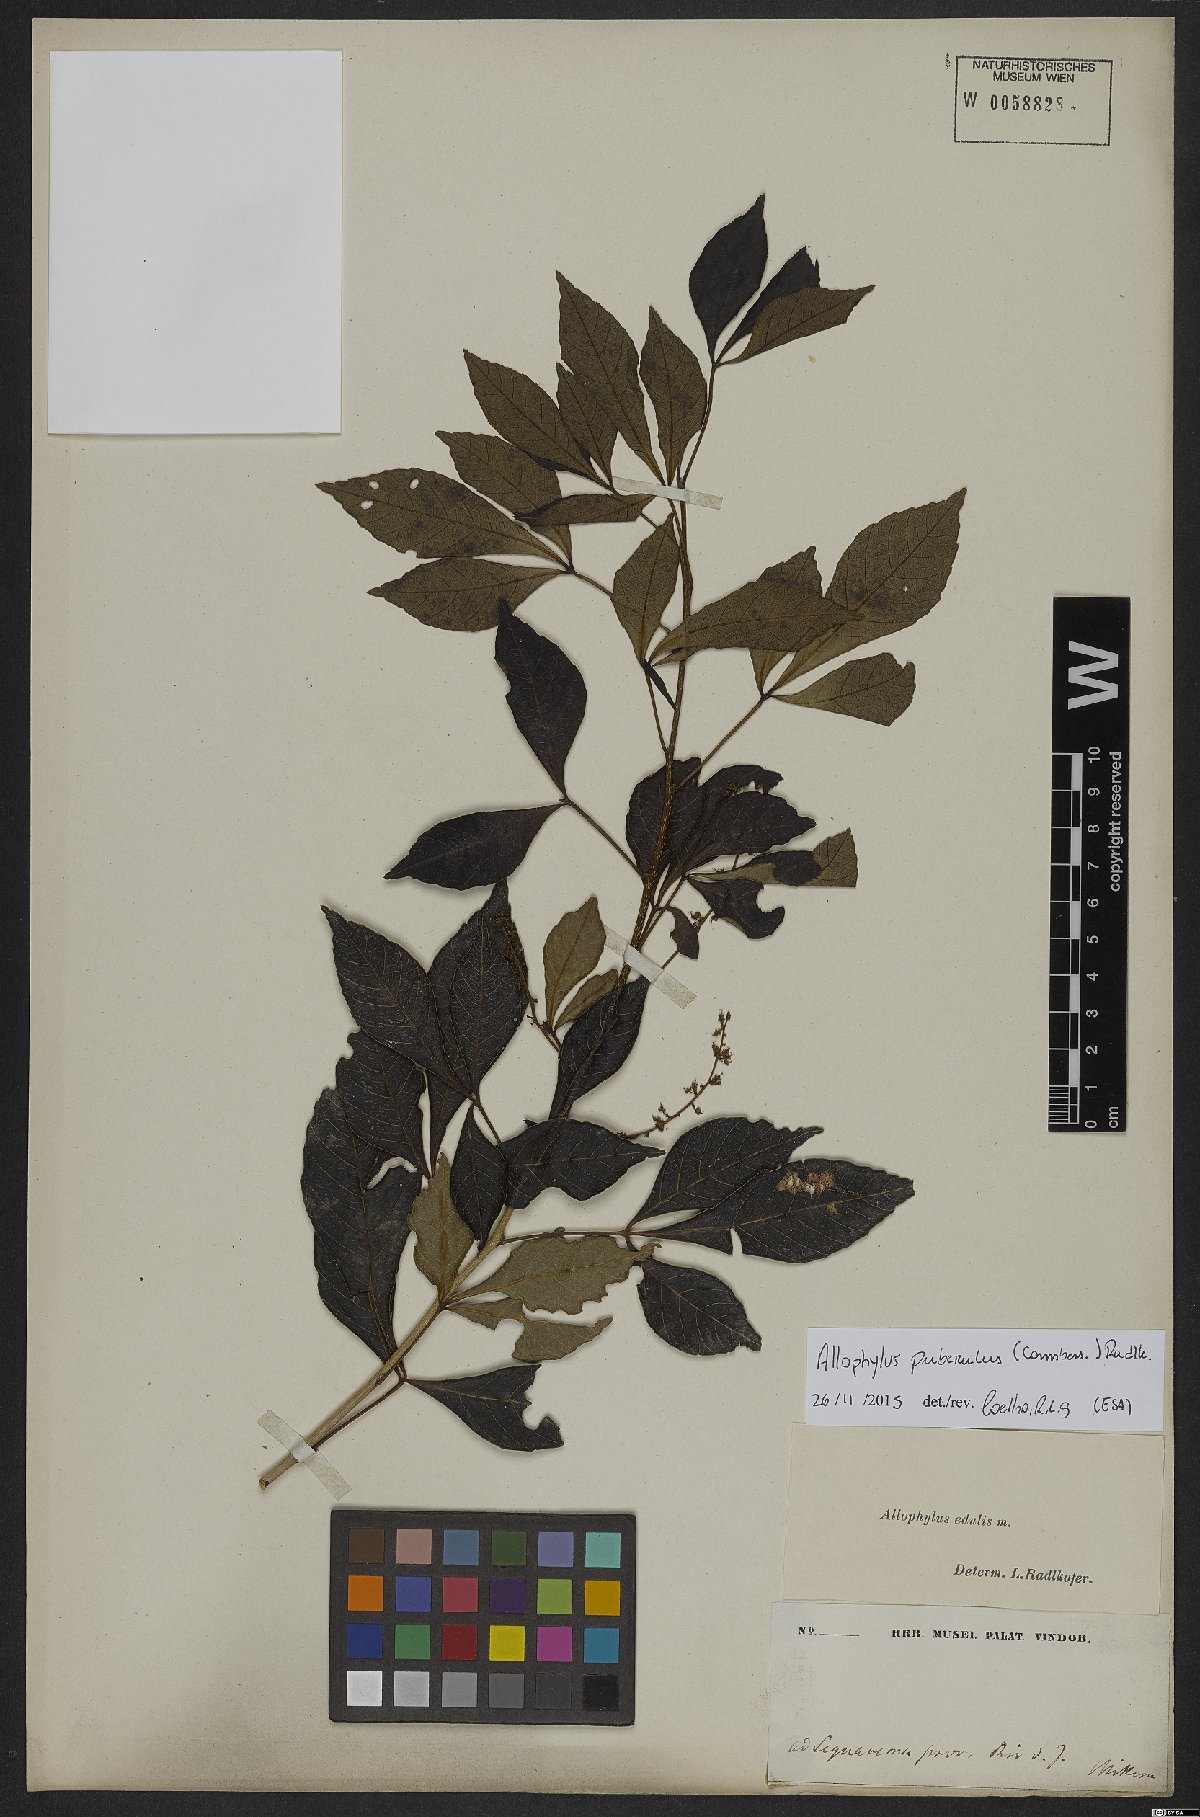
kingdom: Plantae
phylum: Tracheophyta
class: Magnoliopsida
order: Sapindales
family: Sapindaceae
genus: Allophylus
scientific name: Allophylus puberulus
